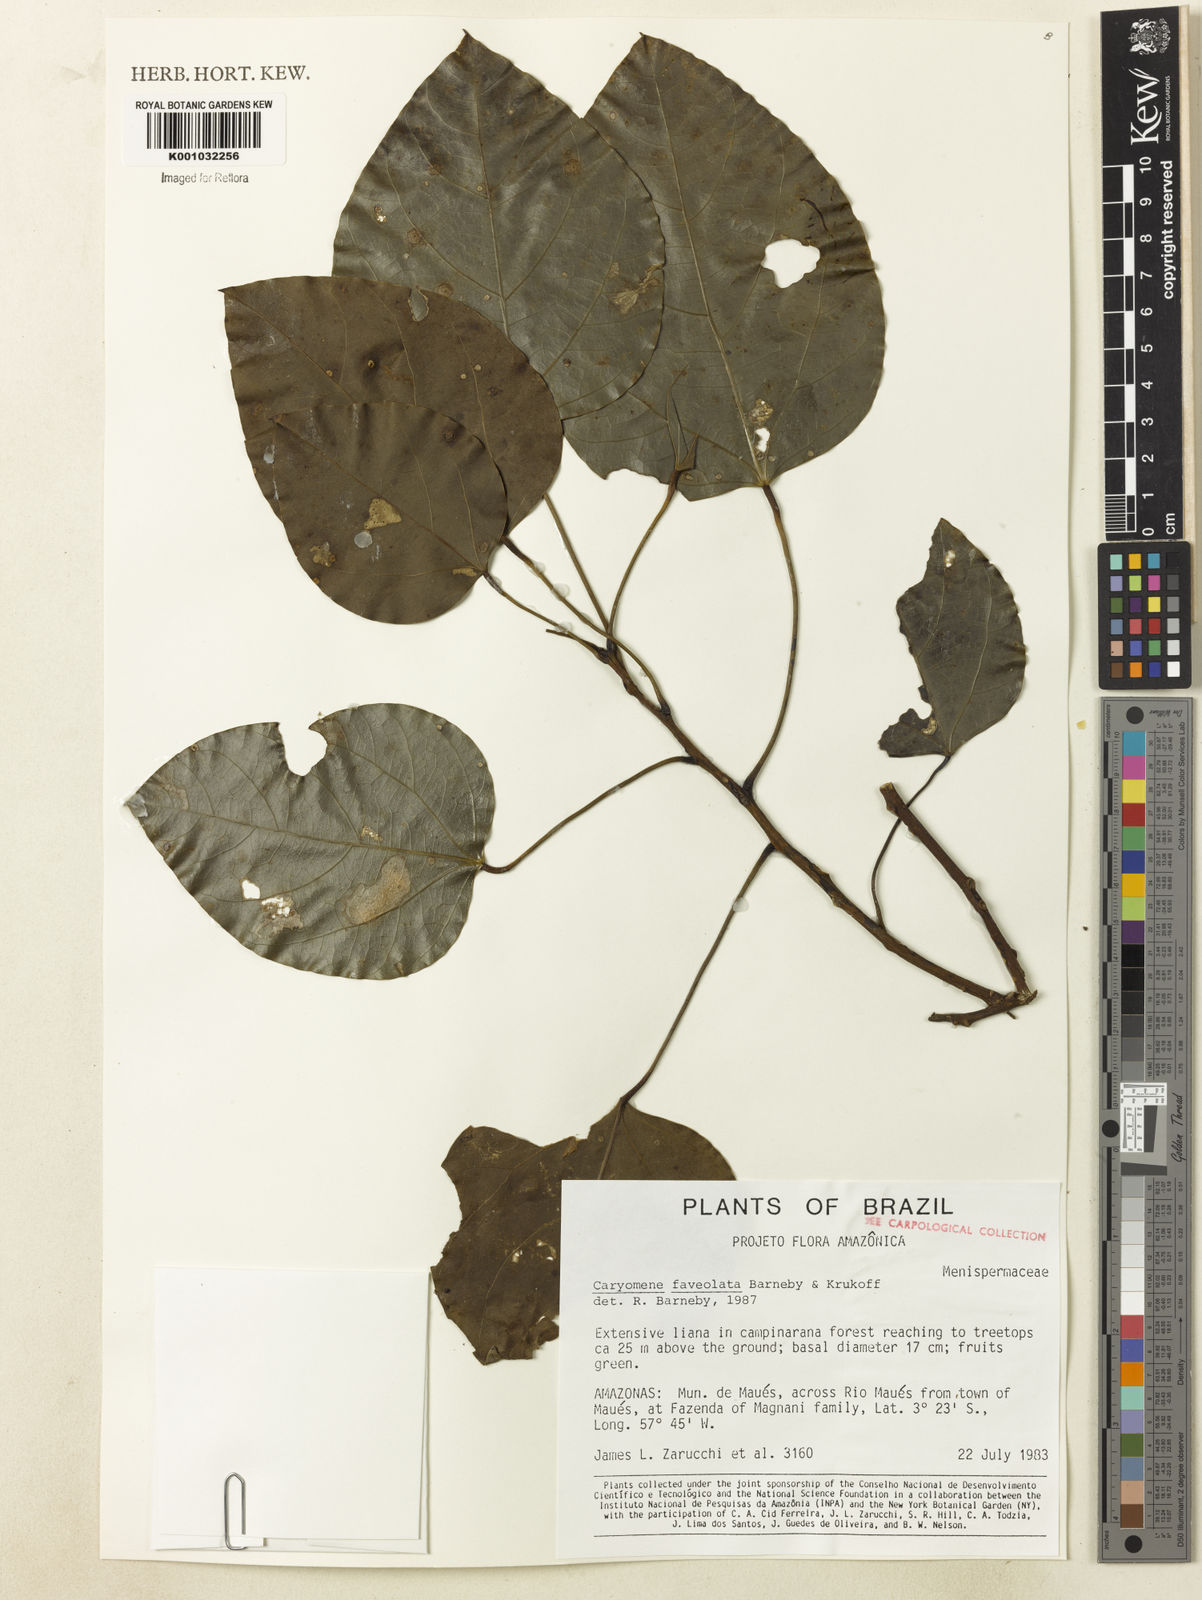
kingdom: Plantae
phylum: Tracheophyta
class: Magnoliopsida
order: Ranunculales
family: Menispermaceae
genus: Caryomene
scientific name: Caryomene foveolata
